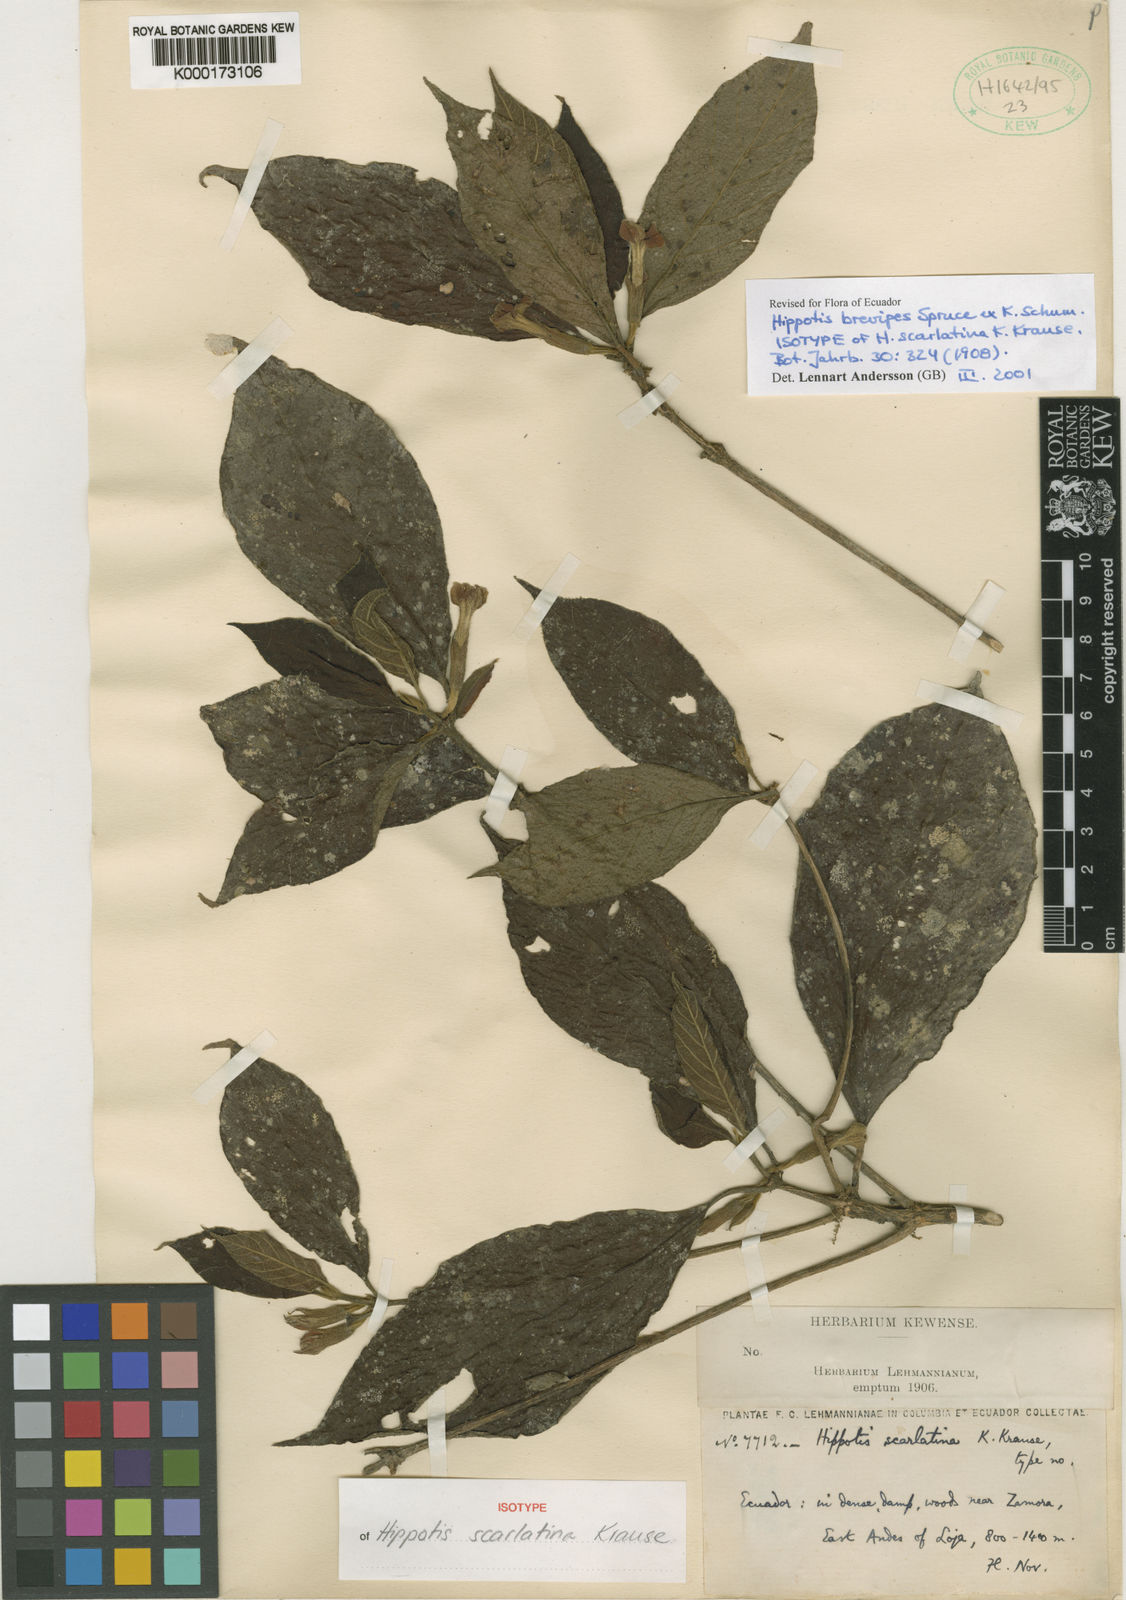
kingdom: Plantae
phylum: Tracheophyta
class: Magnoliopsida
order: Gentianales
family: Rubiaceae
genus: Hippotis
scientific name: Hippotis brevipes
